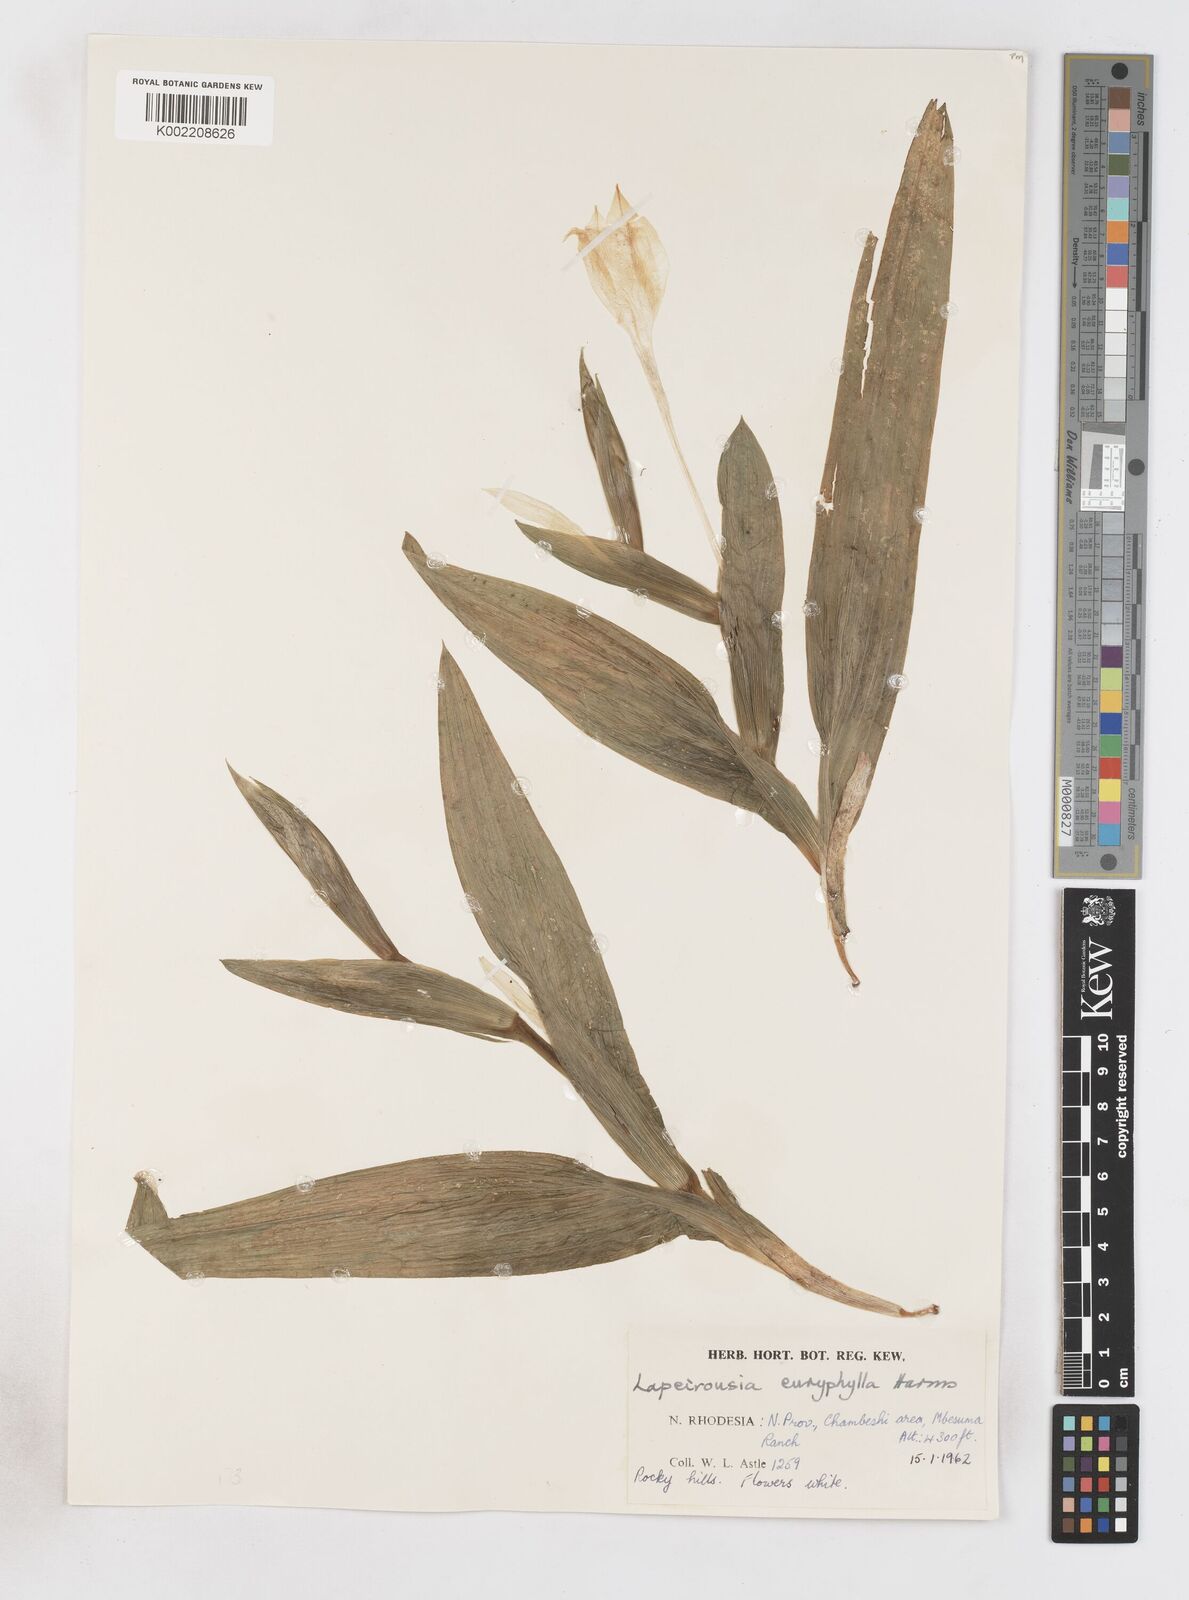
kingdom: Plantae
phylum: Tracheophyta
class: Liliopsida
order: Asparagales
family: Iridaceae
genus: Savannosiphon
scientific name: Savannosiphon euryphylla
